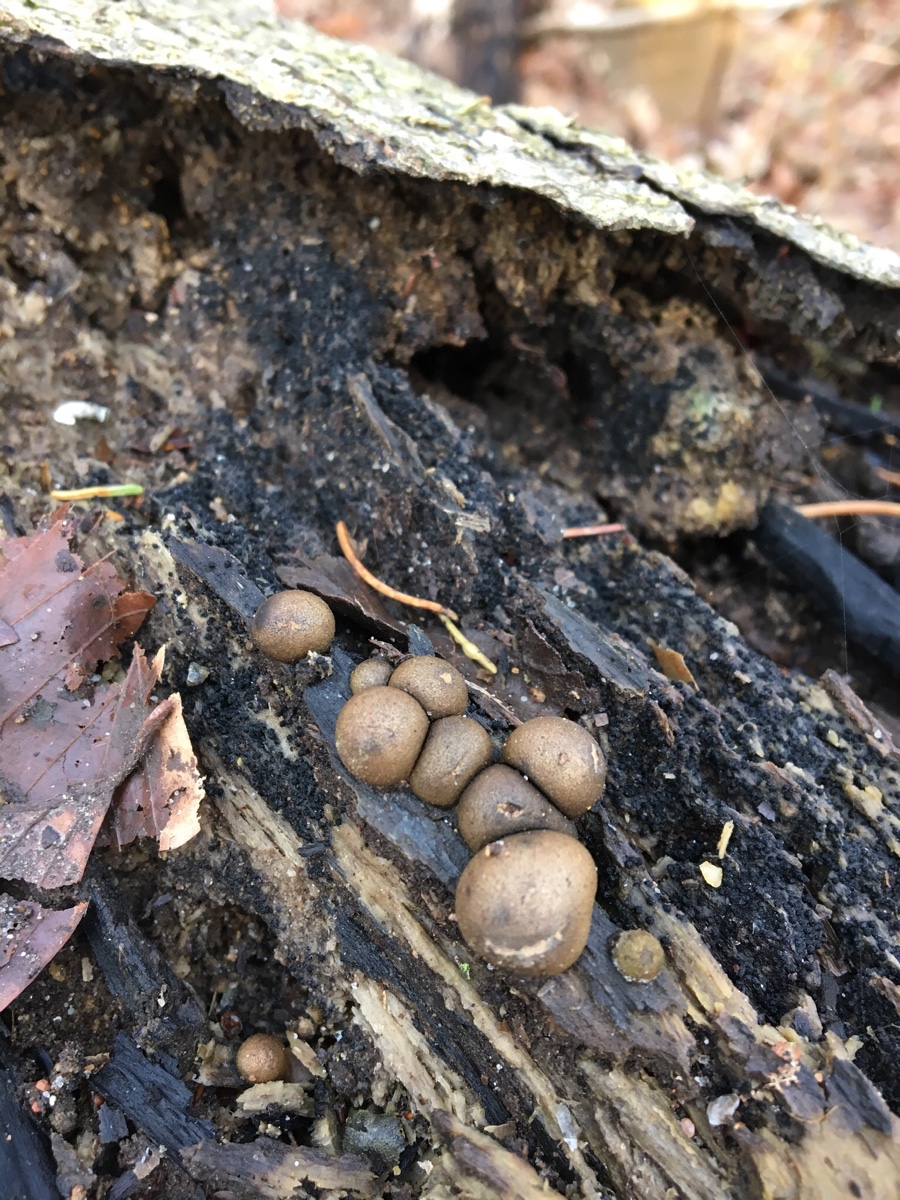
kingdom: Protozoa
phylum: Mycetozoa
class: Myxomycetes
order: Cribrariales
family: Tubiferaceae
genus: Lycogala
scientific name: Lycogala epidendrum
